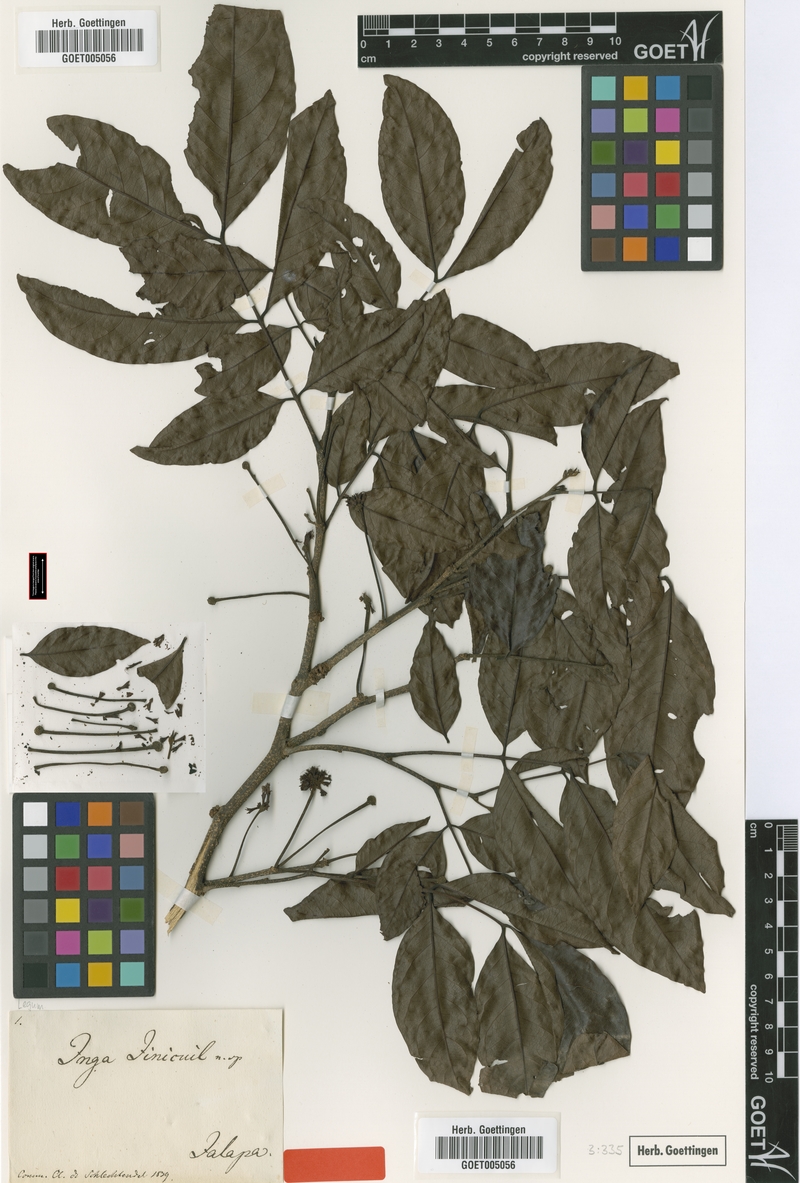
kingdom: Plantae
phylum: Tracheophyta
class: Magnoliopsida
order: Fabales
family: Fabaceae
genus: Inga
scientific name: Inga inicuil
